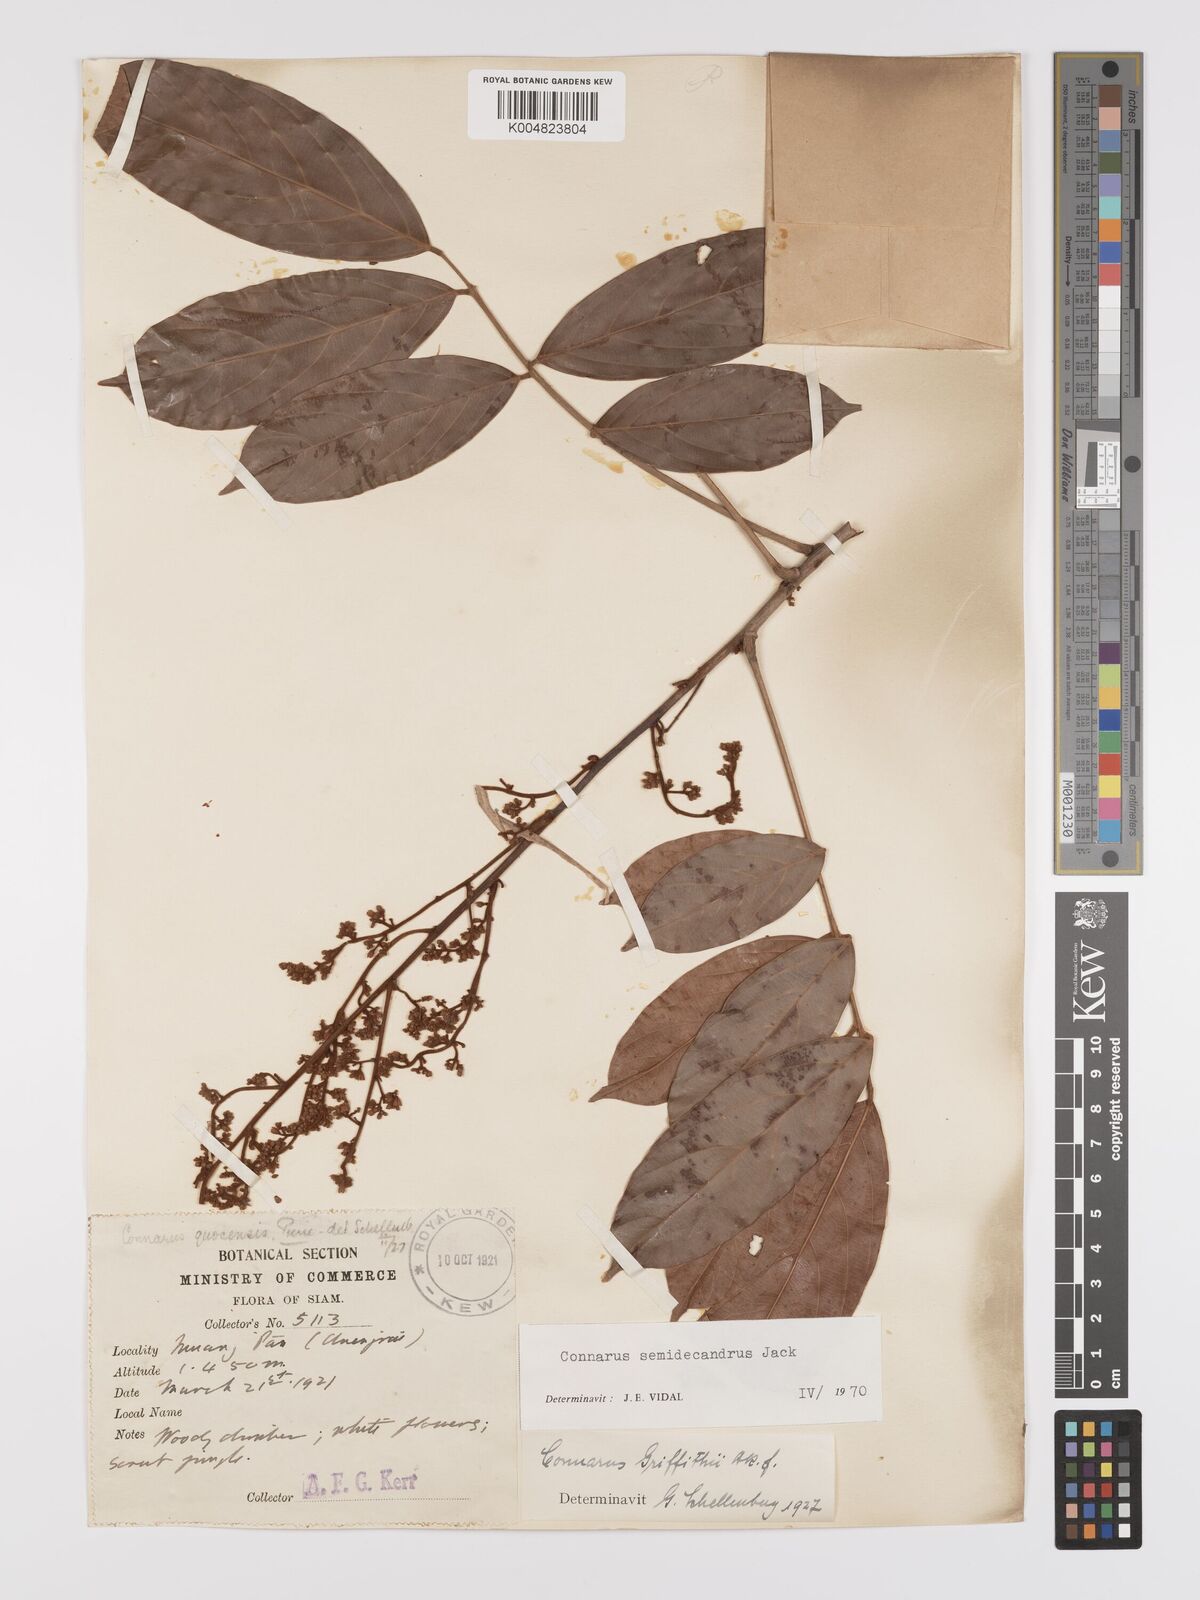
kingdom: Plantae
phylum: Tracheophyta
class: Magnoliopsida
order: Oxalidales
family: Connaraceae
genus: Connarus
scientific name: Connarus semidecandrus
